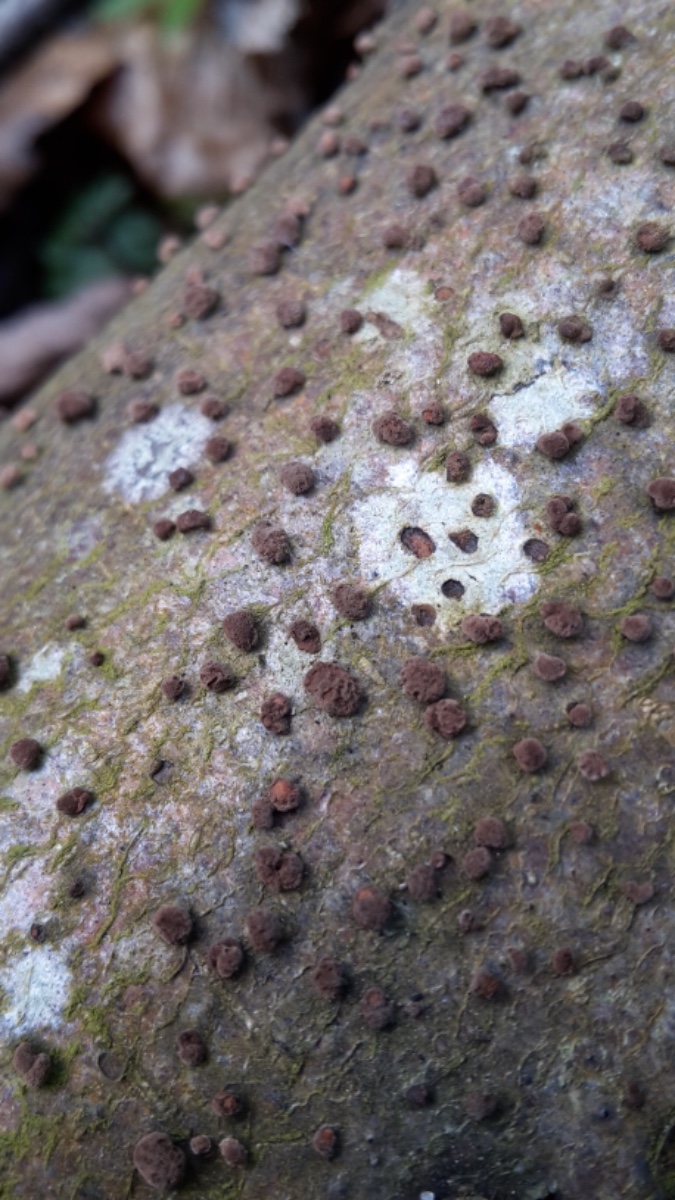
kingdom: Fungi
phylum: Ascomycota
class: Sordariomycetes
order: Xylariales
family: Hypoxylaceae
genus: Hypoxylon
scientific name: Hypoxylon fragiforme
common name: kuljordbær
